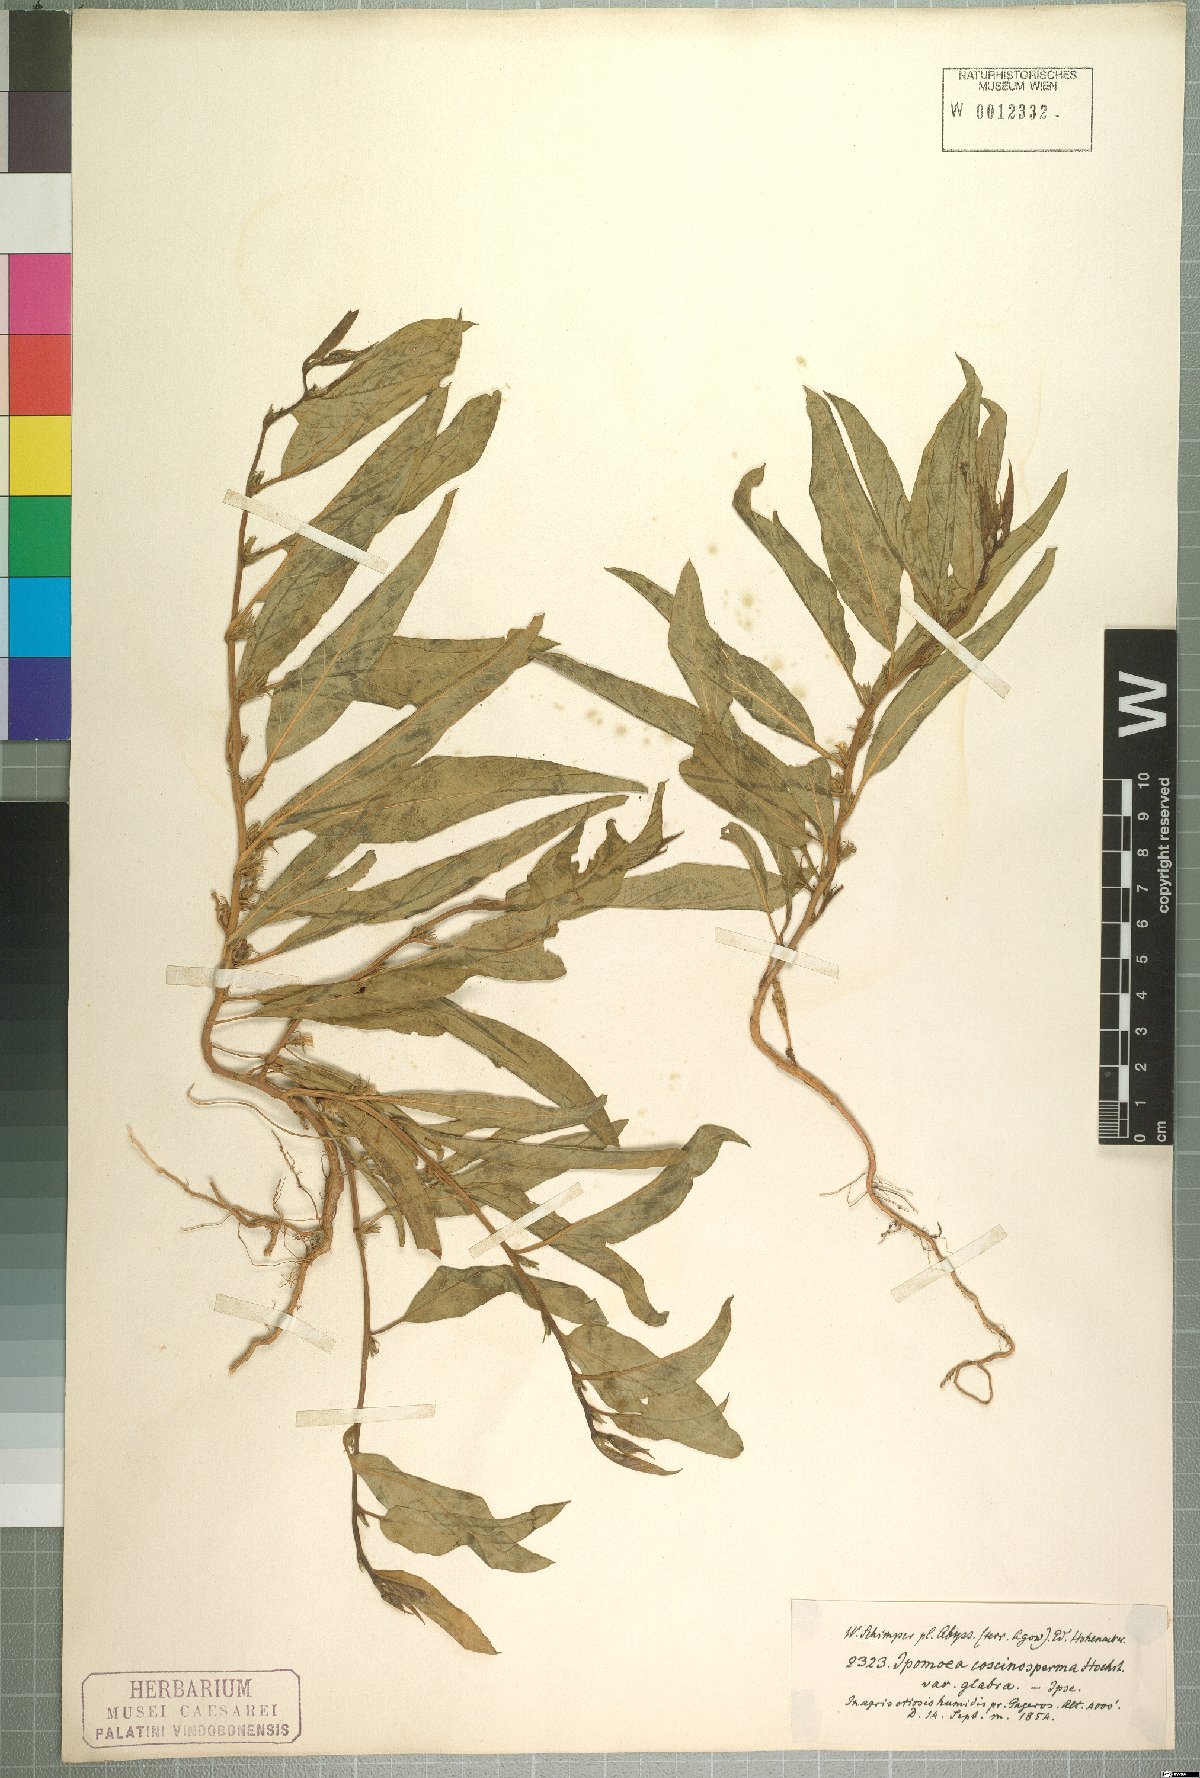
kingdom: Plantae
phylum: Tracheophyta
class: Magnoliopsida
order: Solanales
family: Convolvulaceae
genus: Ipomoea
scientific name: Ipomoea coscinosperma
